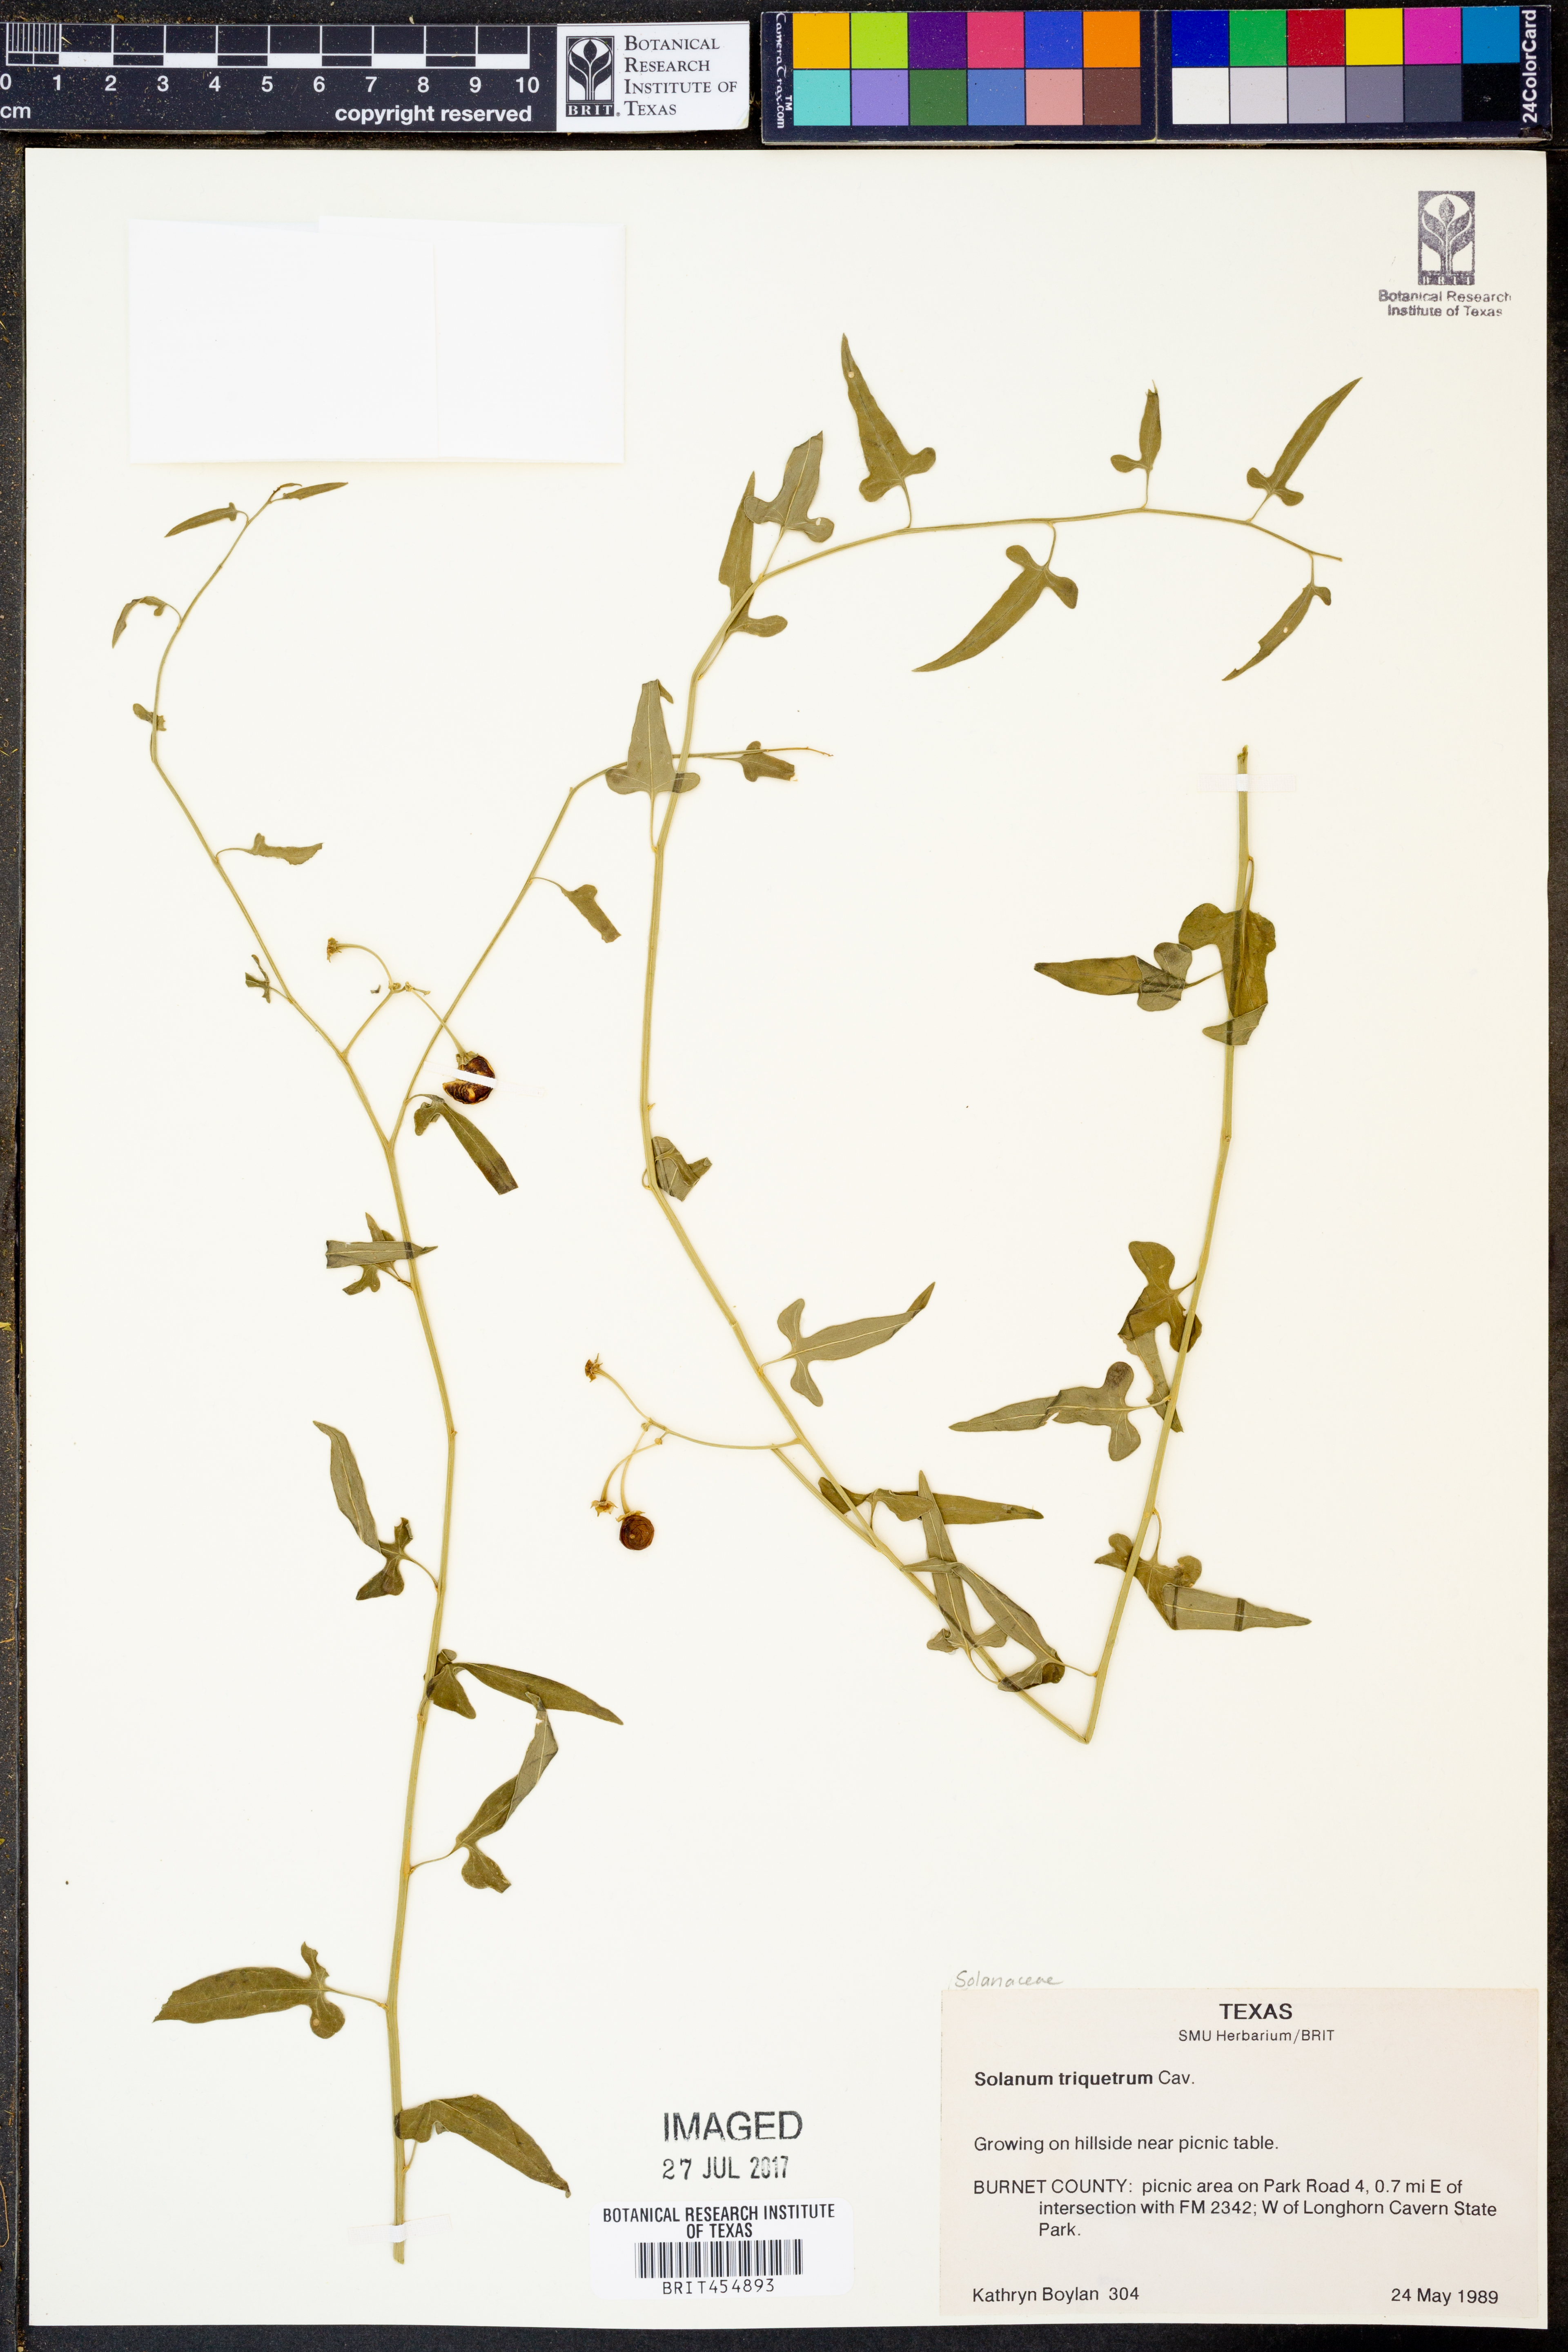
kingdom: Plantae
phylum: Tracheophyta
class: Magnoliopsida
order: Solanales
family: Solanaceae
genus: Solanum
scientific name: Solanum triquetrum
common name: Texas nightshade
